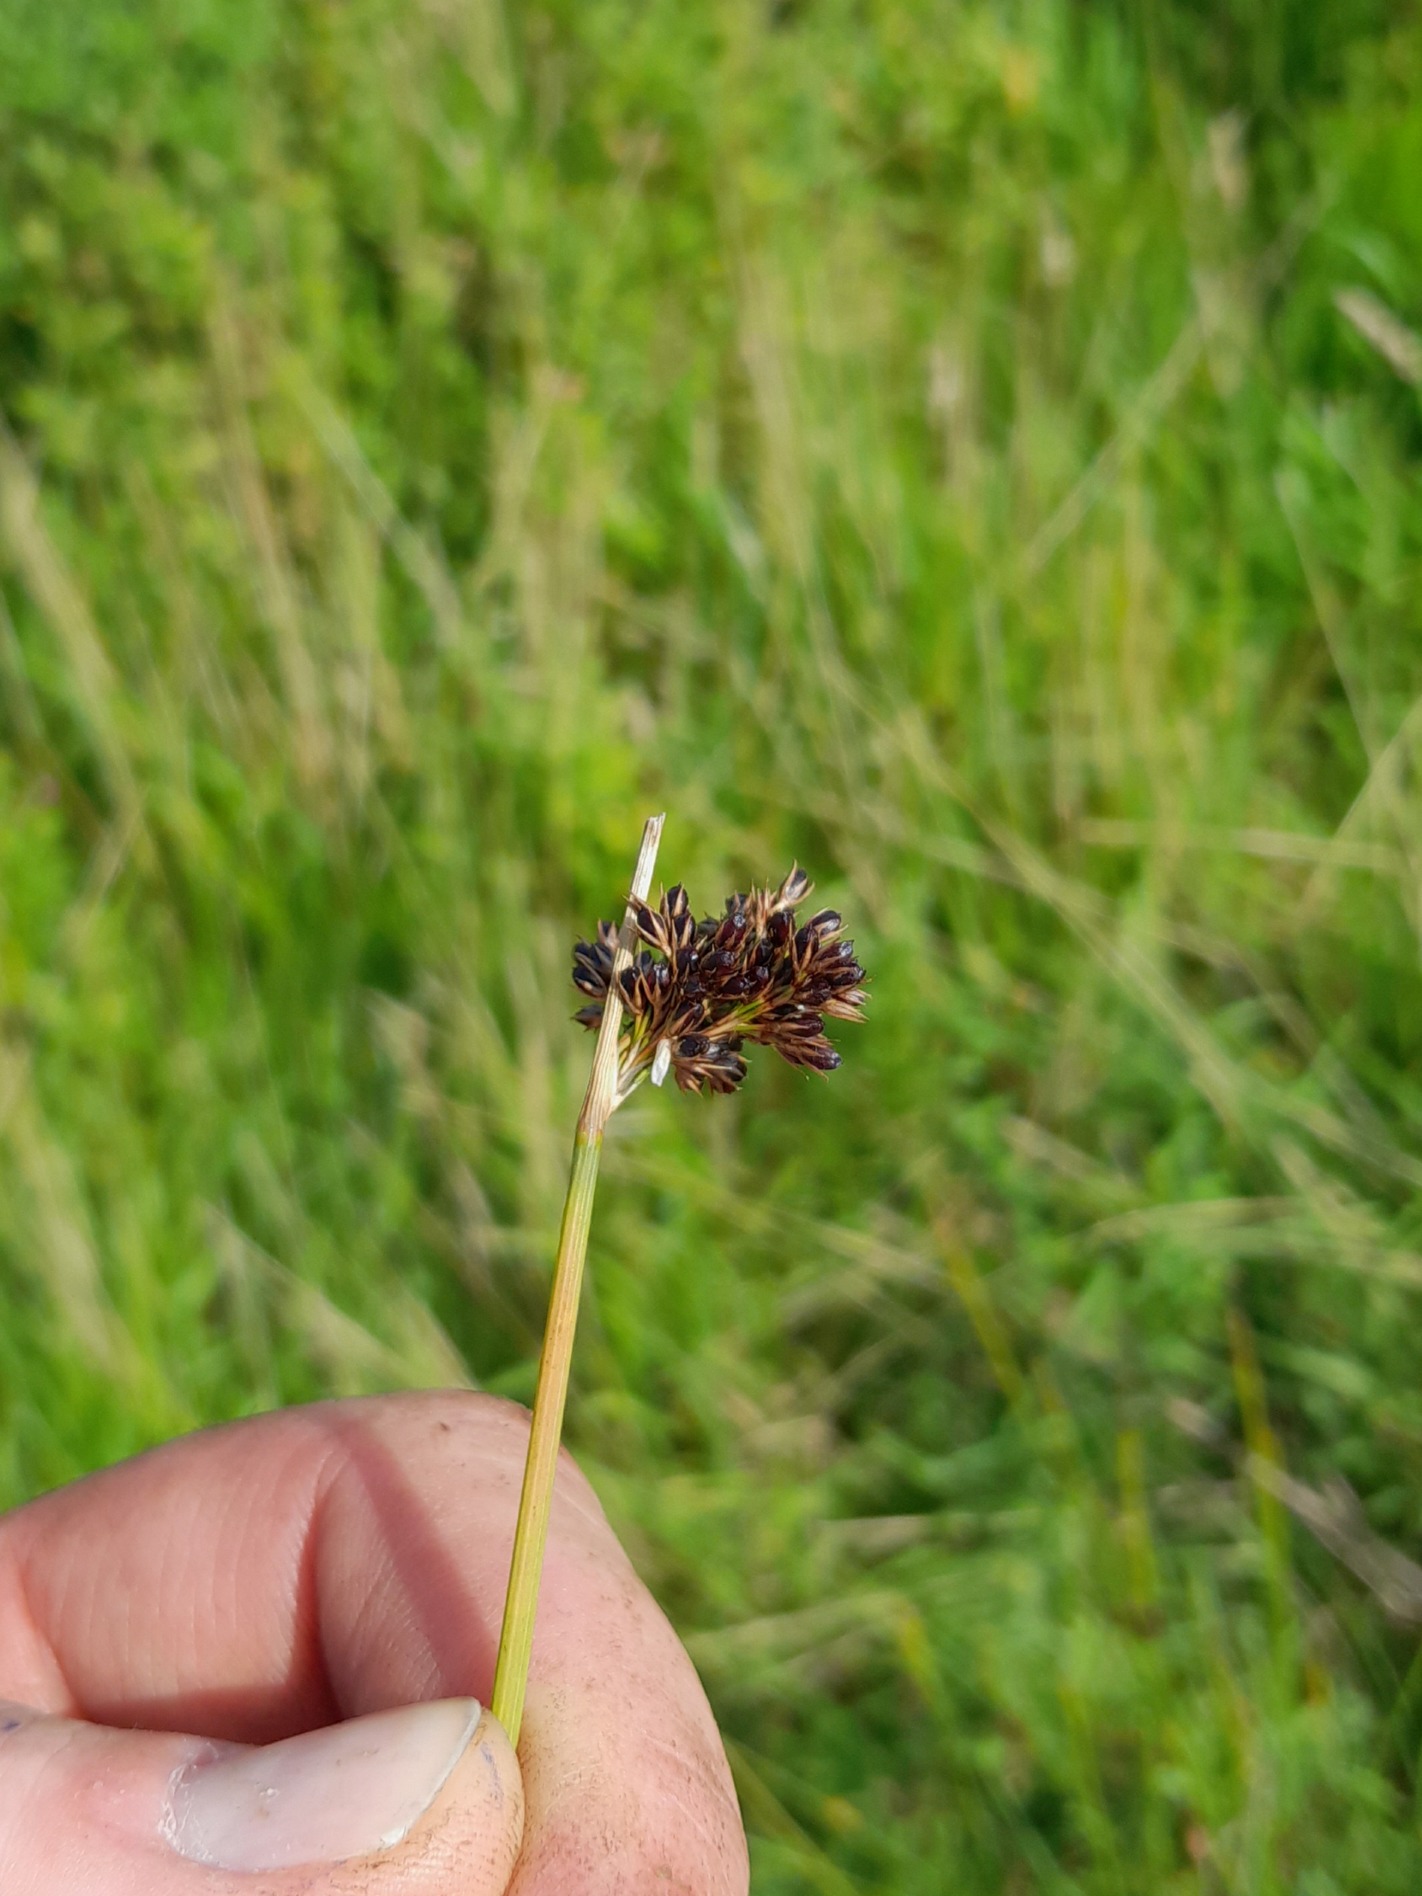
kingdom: Plantae
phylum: Tracheophyta
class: Liliopsida
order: Poales
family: Juncaceae
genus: Juncus
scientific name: Juncus inflexus
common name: Blågrå siv
